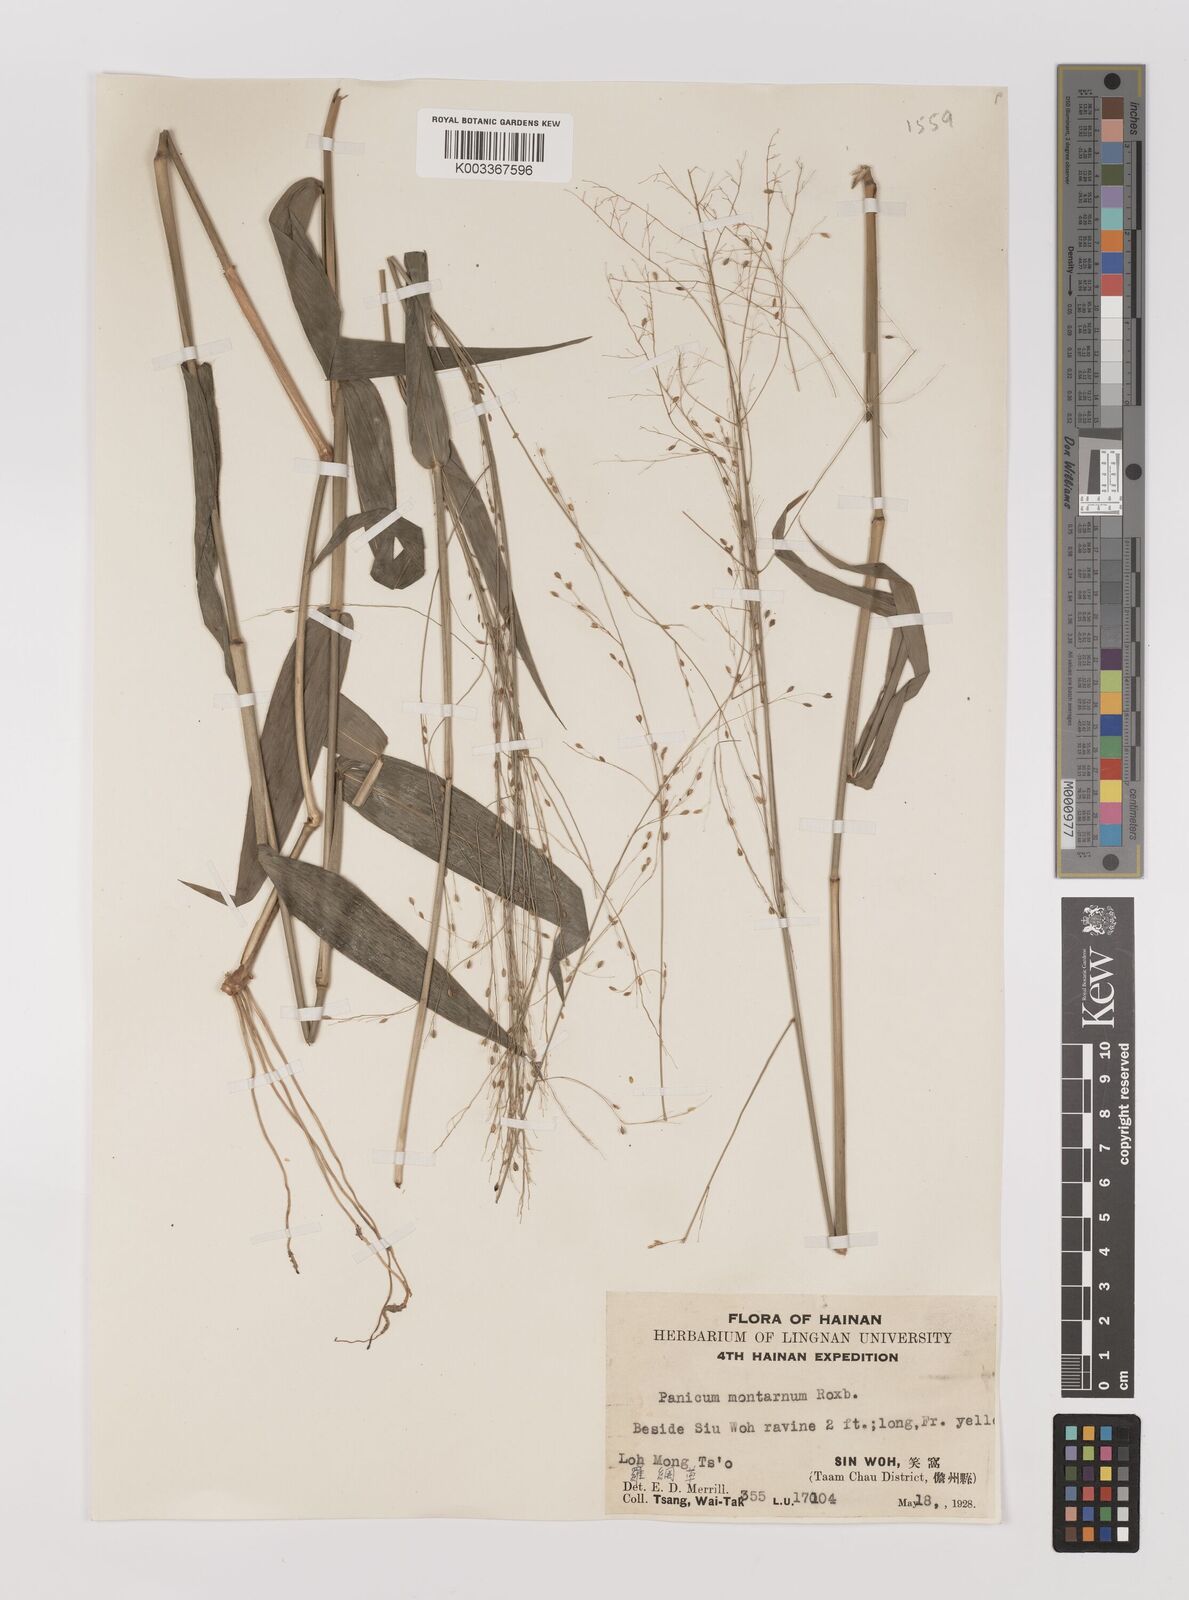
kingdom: Plantae
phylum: Tracheophyta
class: Liliopsida
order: Poales
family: Poaceae
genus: Panicum
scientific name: Panicum notatum
